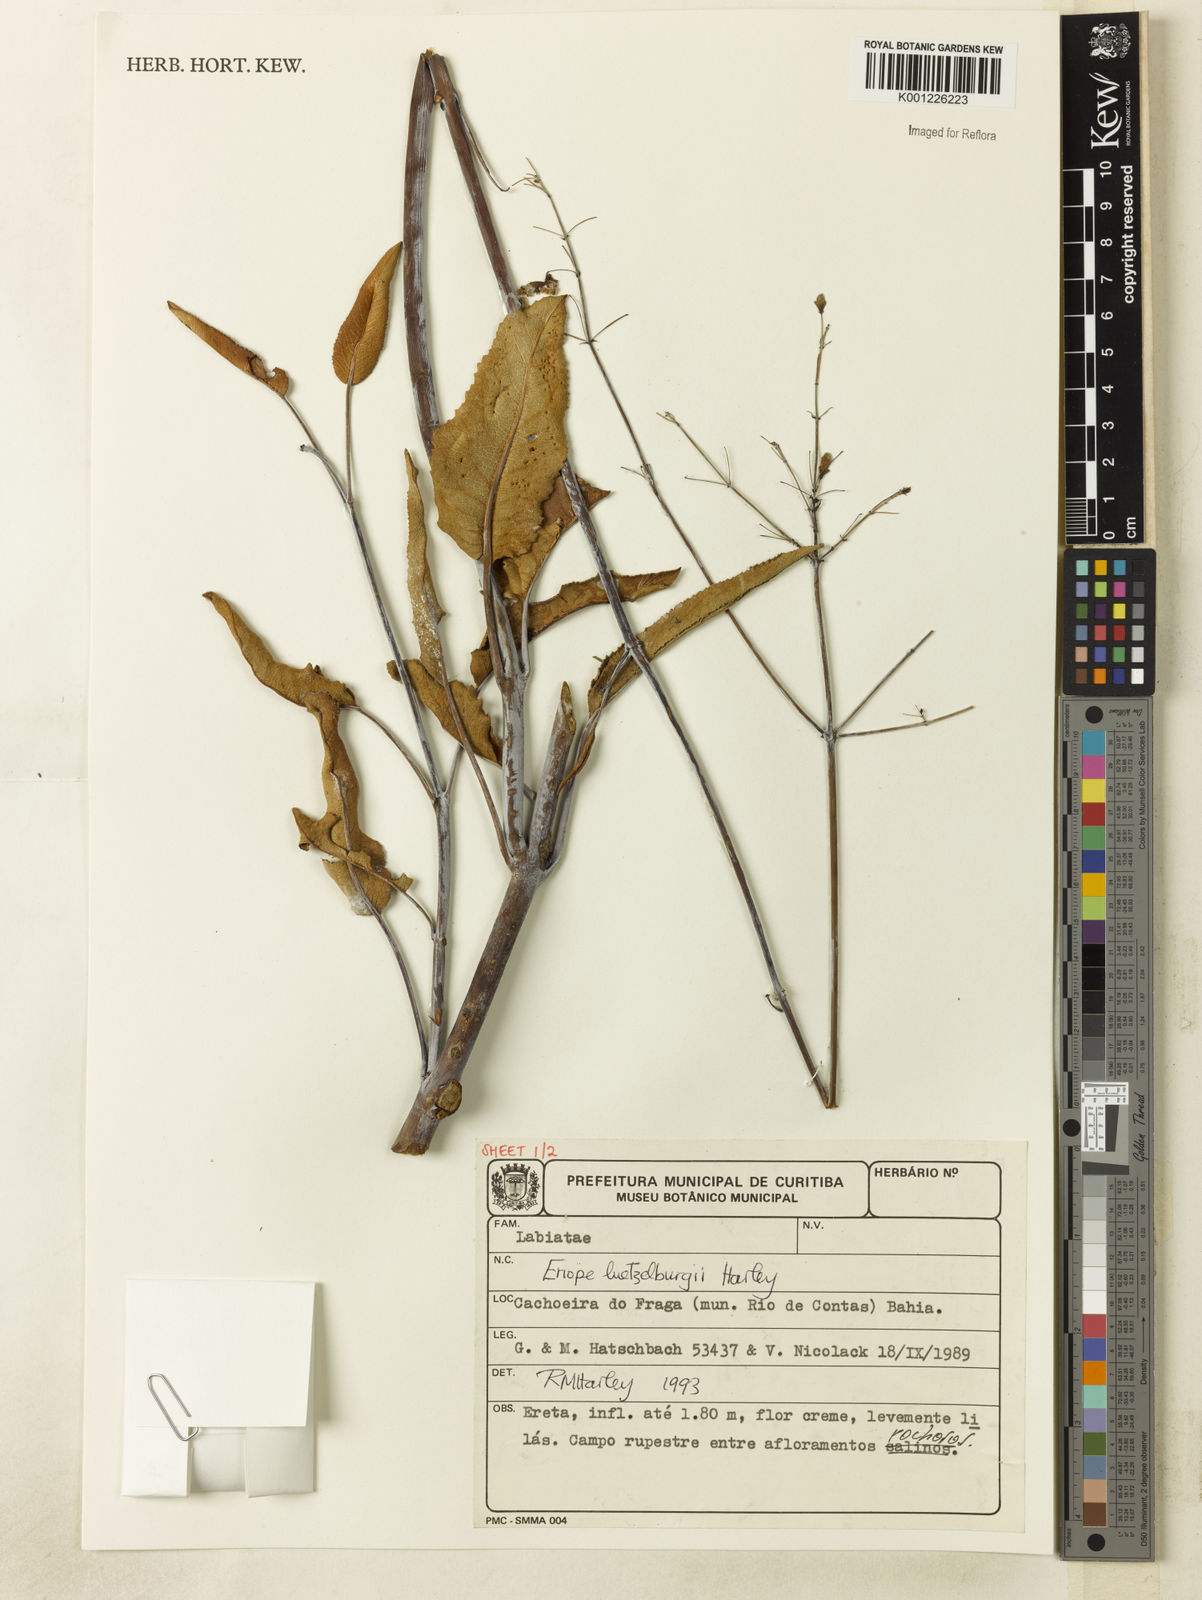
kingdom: Plantae
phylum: Tracheophyta
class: Magnoliopsida
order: Lamiales
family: Lamiaceae
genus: Eriope
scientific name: Eriope luetzelburgii
